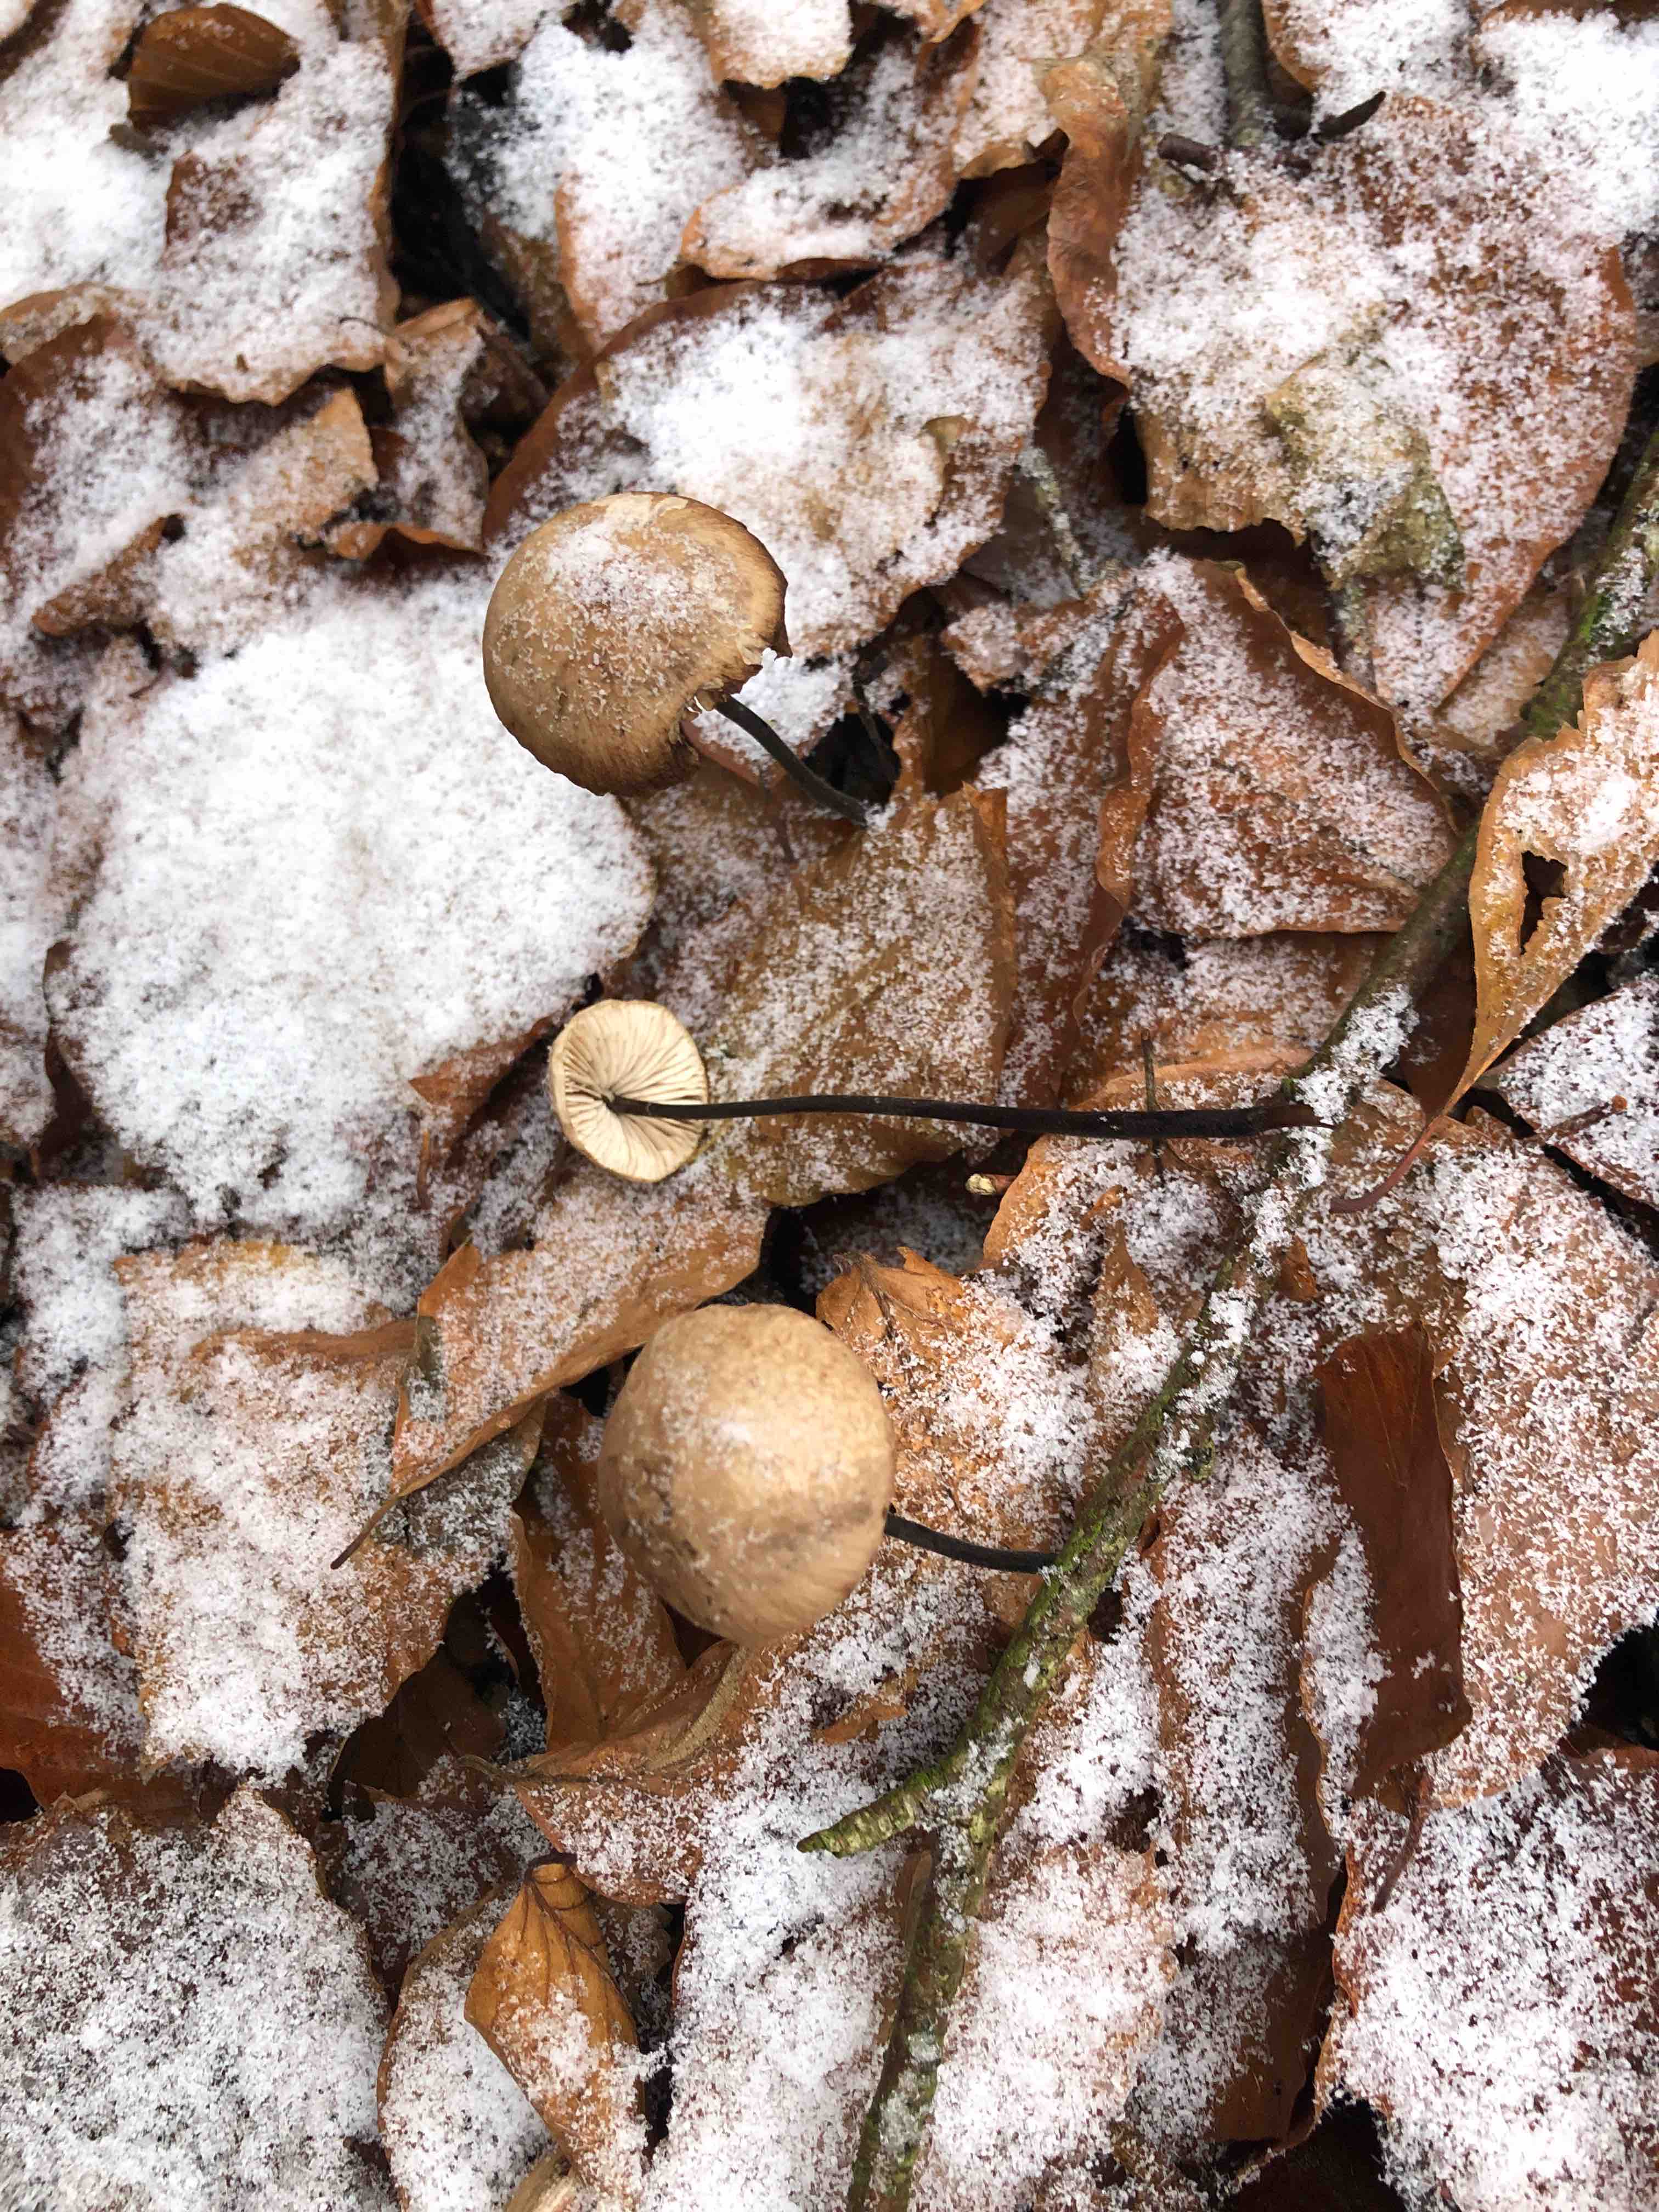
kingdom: Fungi
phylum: Basidiomycota
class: Agaricomycetes
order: Agaricales
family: Omphalotaceae
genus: Mycetinis
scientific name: Mycetinis alliaceus
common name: stor løghat
